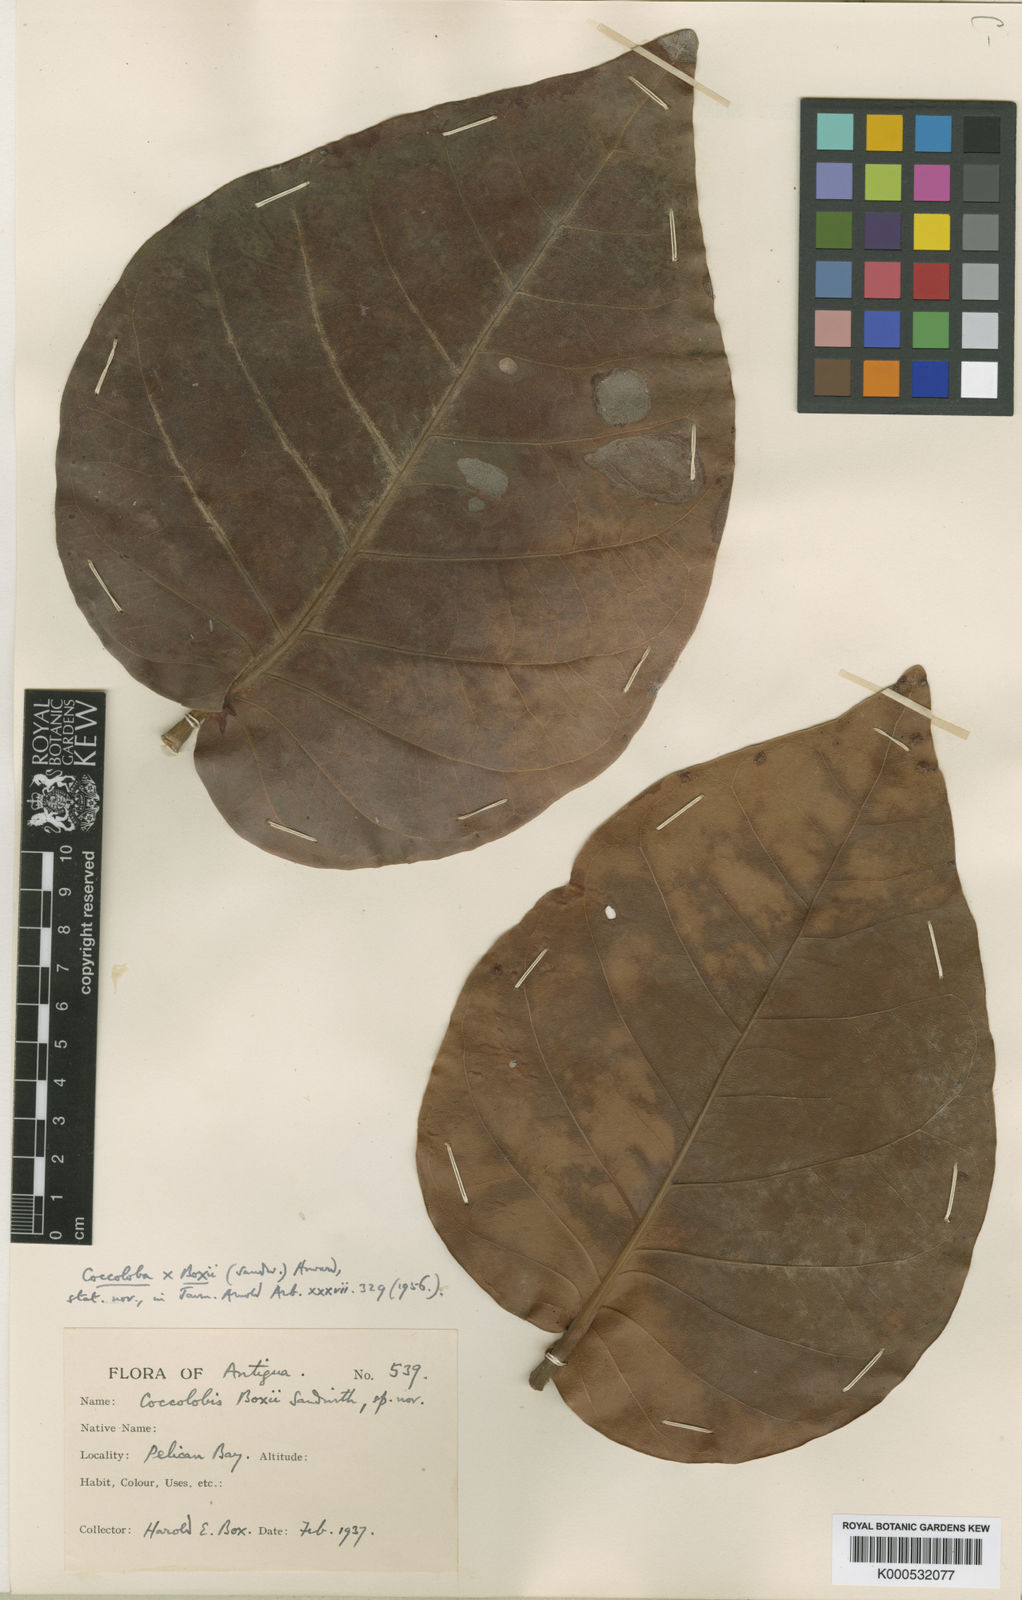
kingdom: Plantae
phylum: Tracheophyta
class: Magnoliopsida
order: Caryophyllales
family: Polygonaceae
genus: Coccoloba
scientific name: Coccoloba boxii
